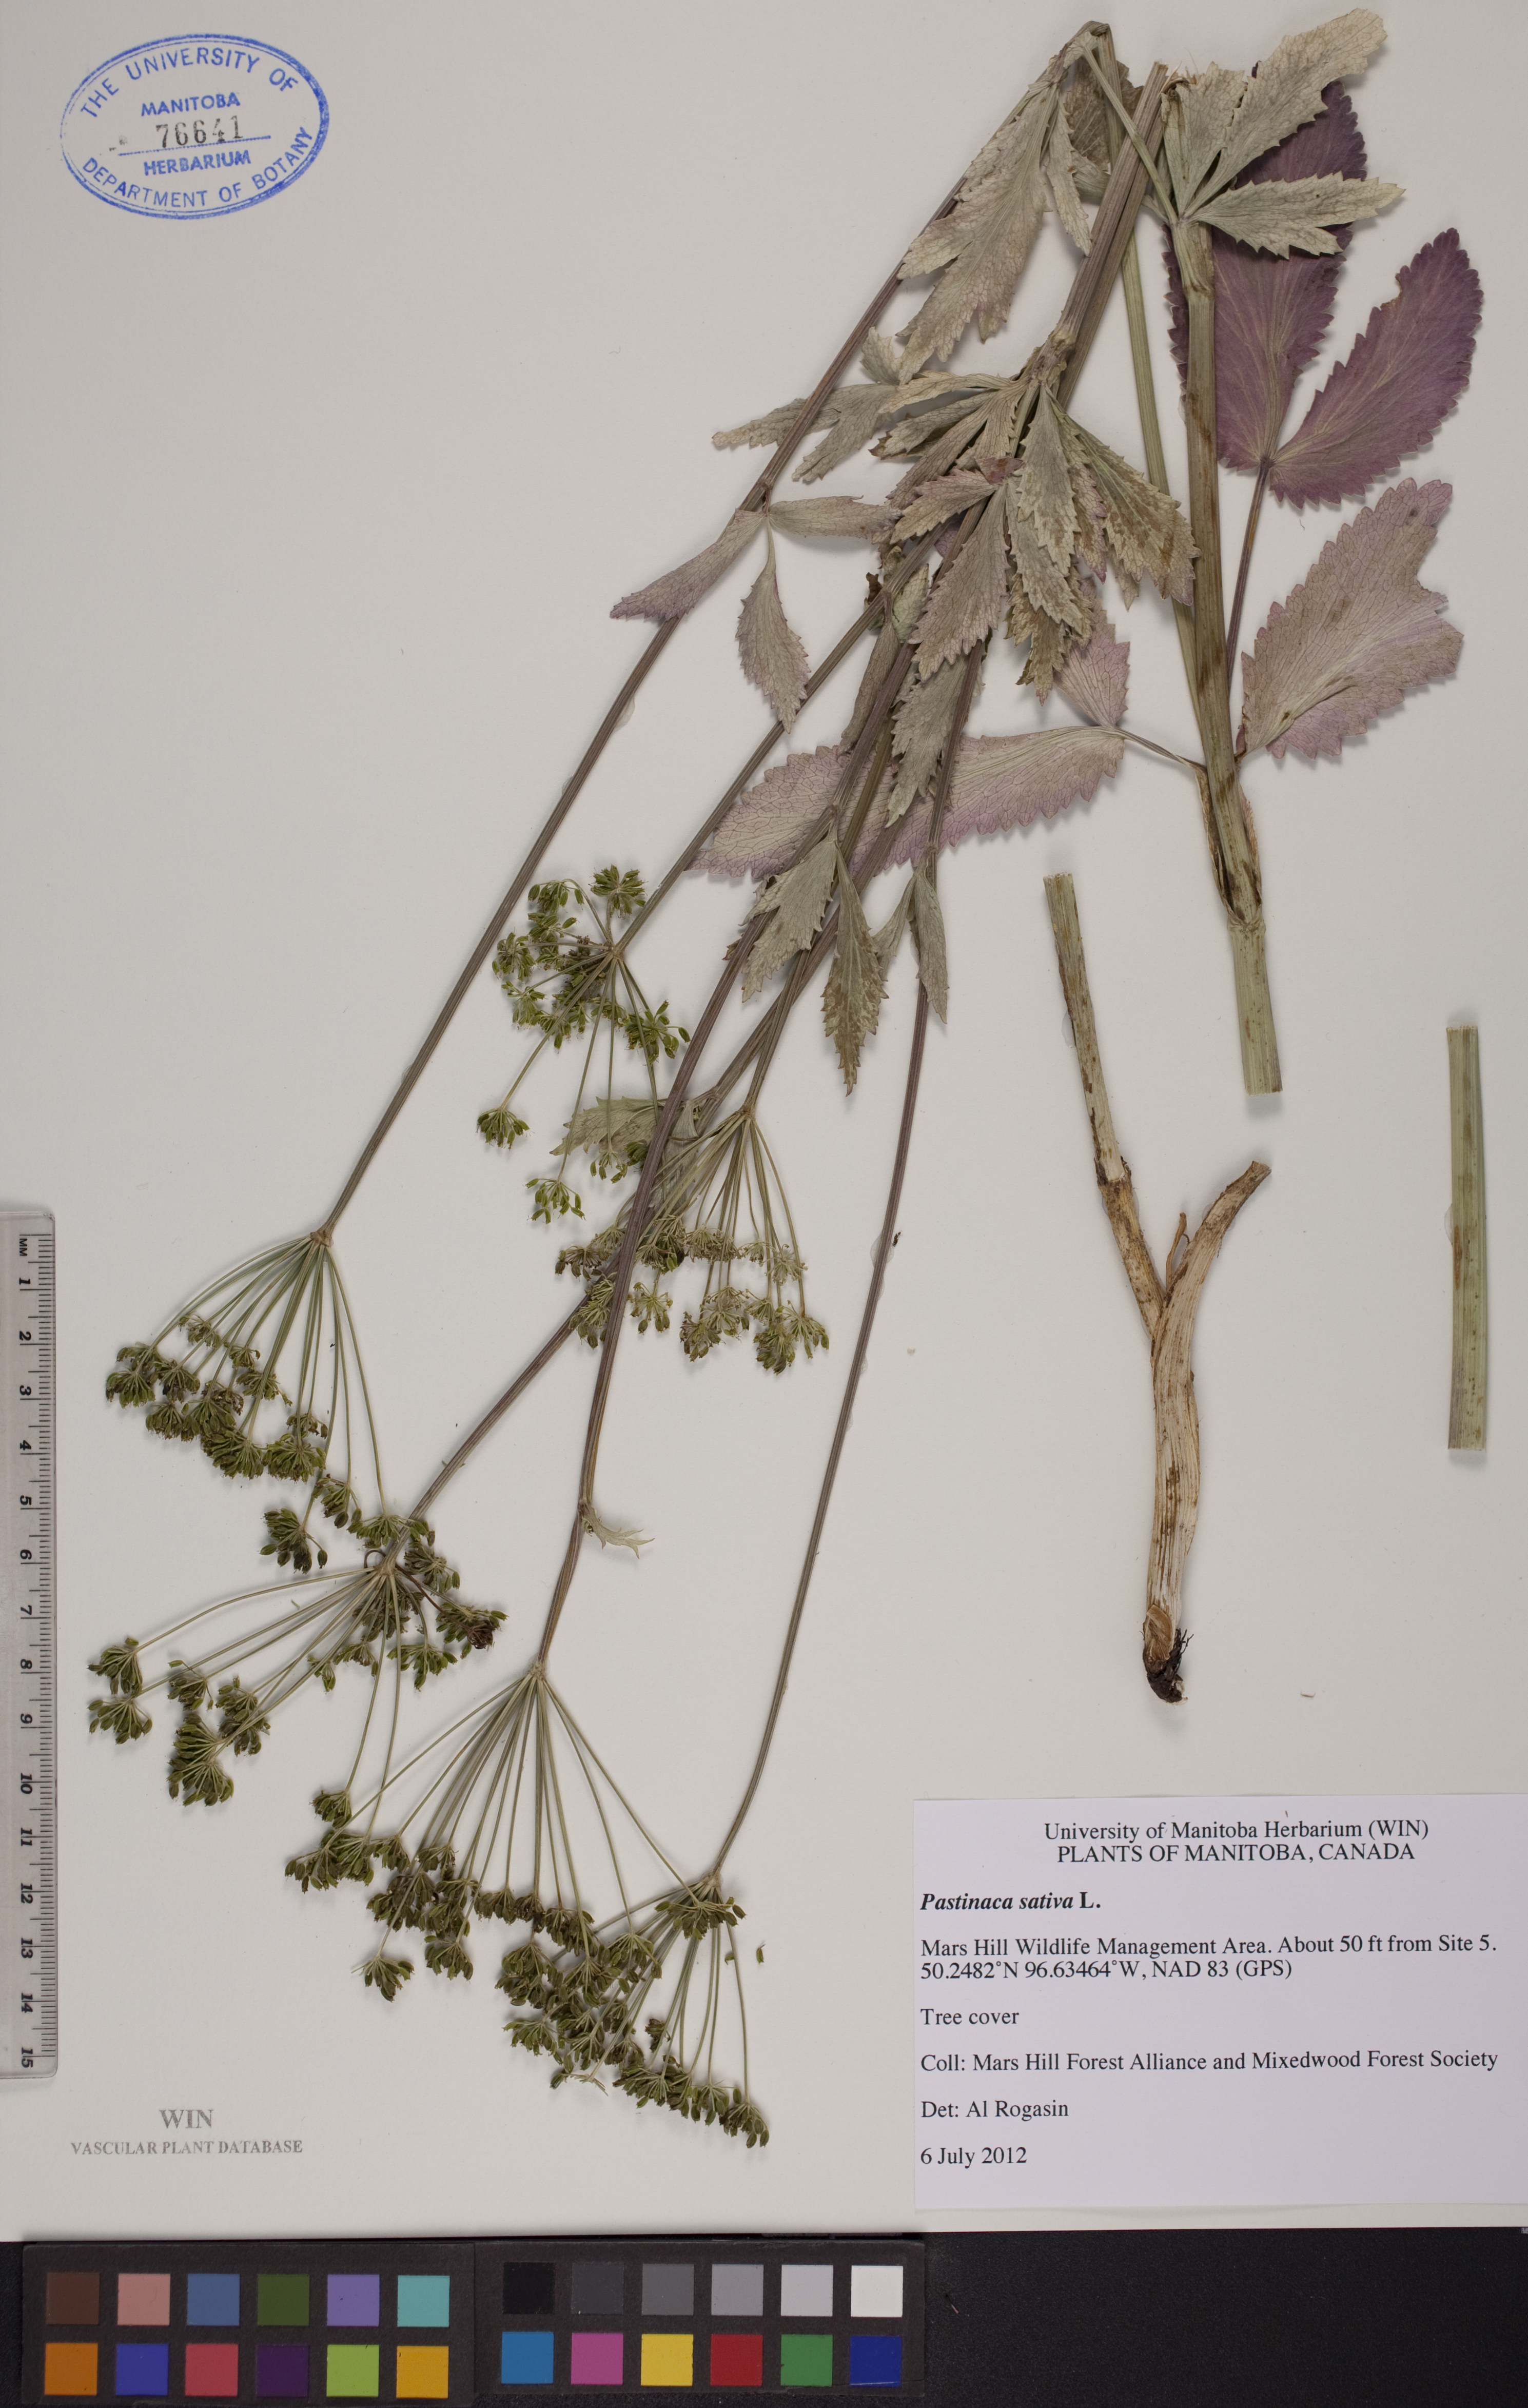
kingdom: Plantae
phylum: Tracheophyta
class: Magnoliopsida
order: Apiales
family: Apiaceae
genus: Pastinaca
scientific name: Pastinaca sativa
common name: Wild parsnip
